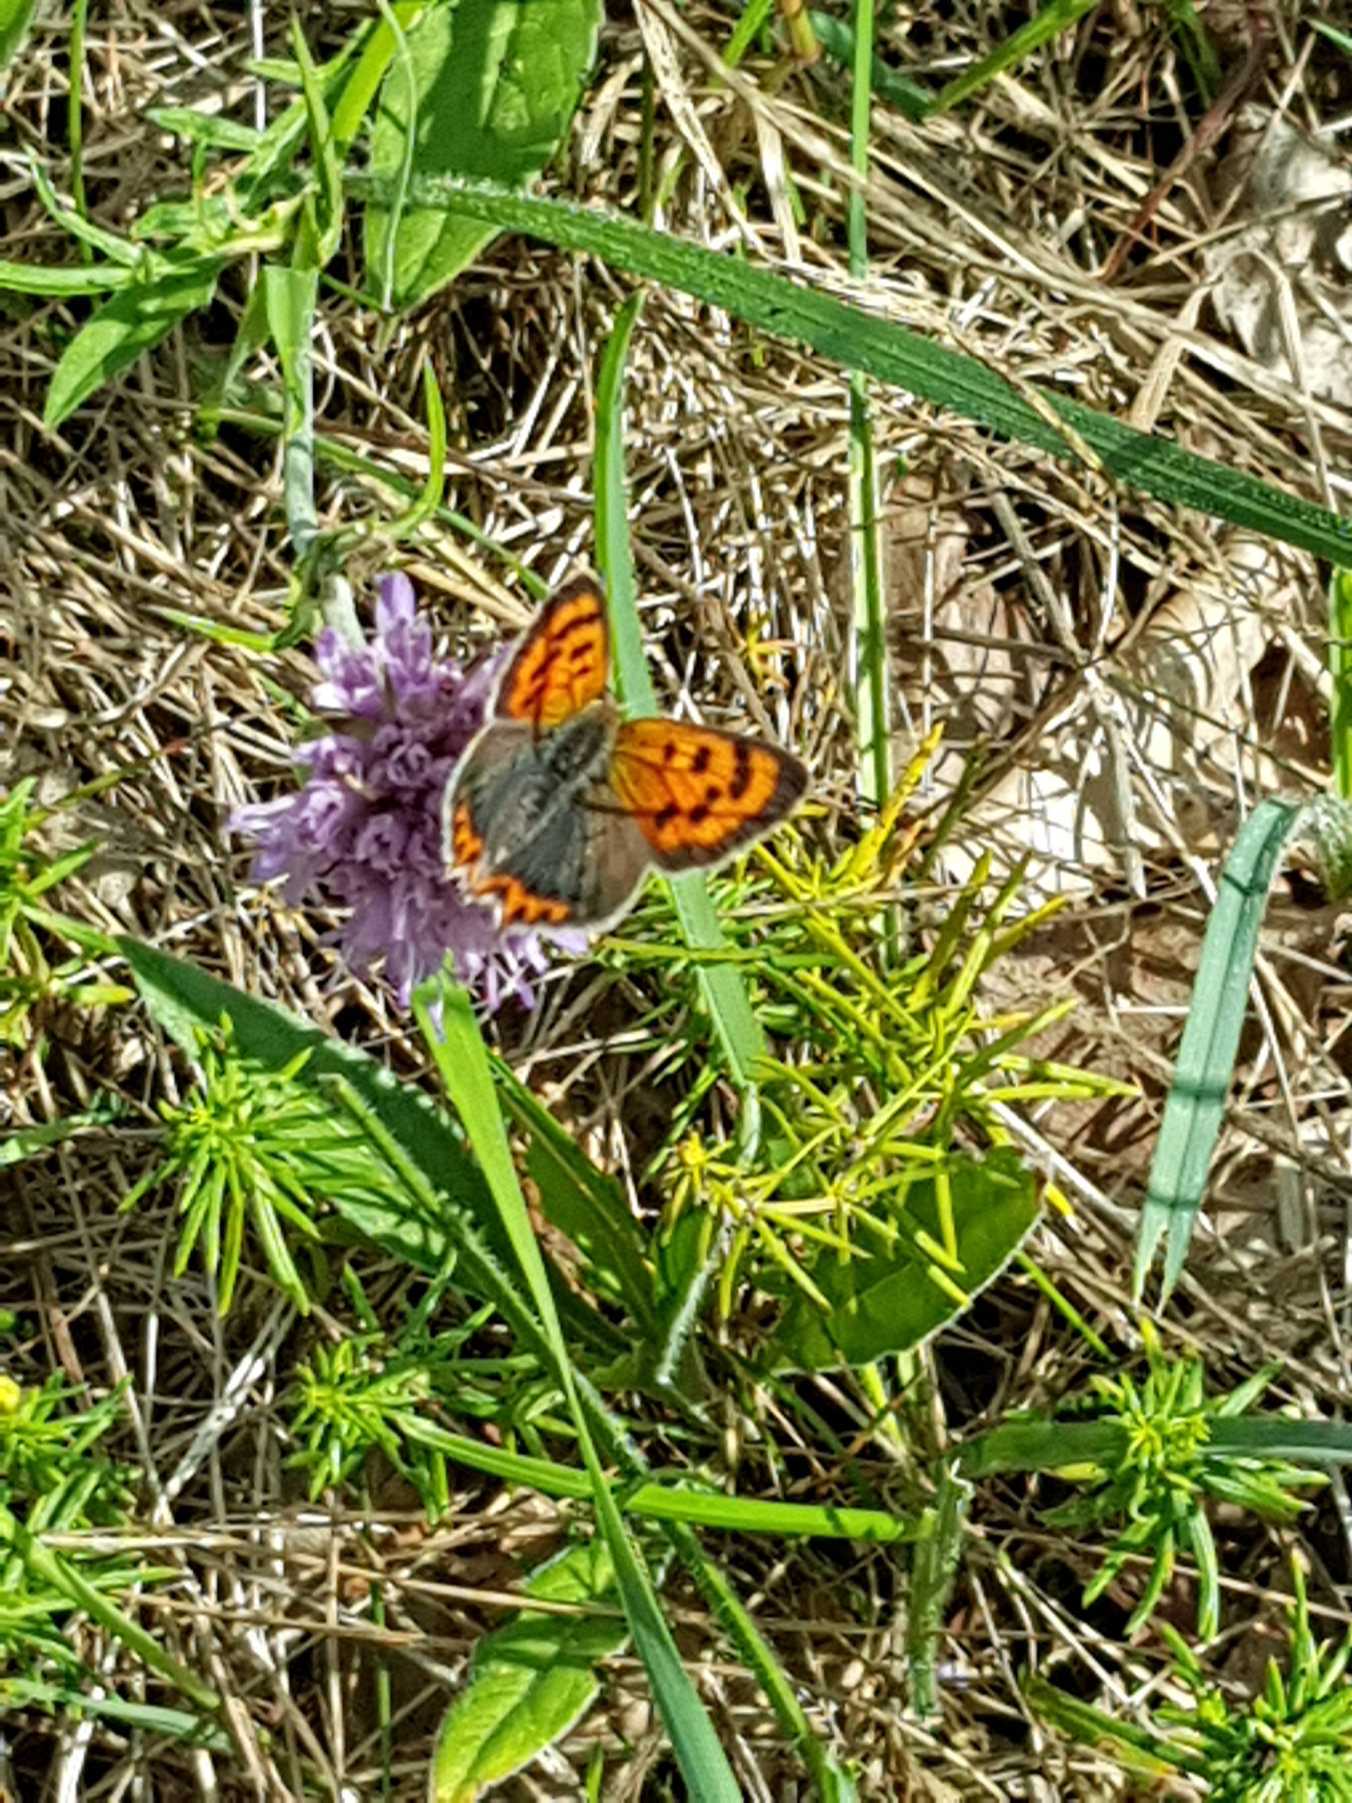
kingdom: Animalia
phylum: Arthropoda
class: Insecta
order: Lepidoptera
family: Lycaenidae
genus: Lycaena
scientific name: Lycaena phlaeas
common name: Lille ildfugl
